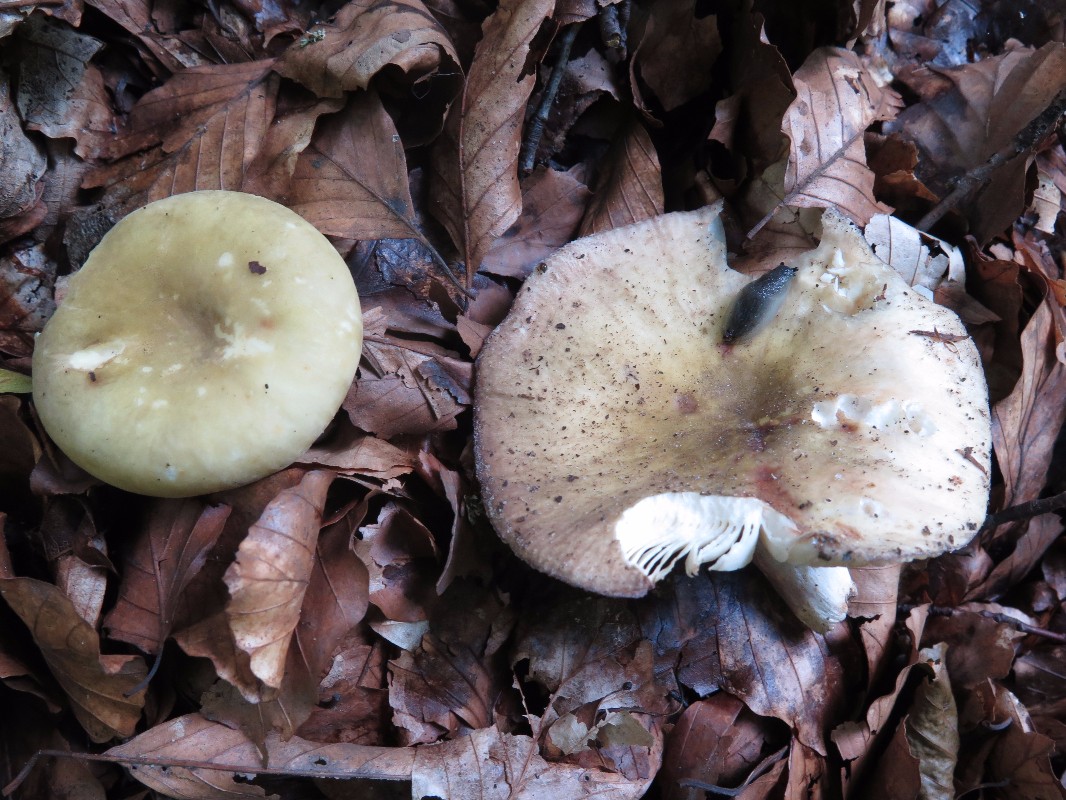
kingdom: Fungi
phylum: Basidiomycota
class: Agaricomycetes
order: Russulales
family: Russulaceae
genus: Russula
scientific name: Russula violeipes
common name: ferskengul skørhat
